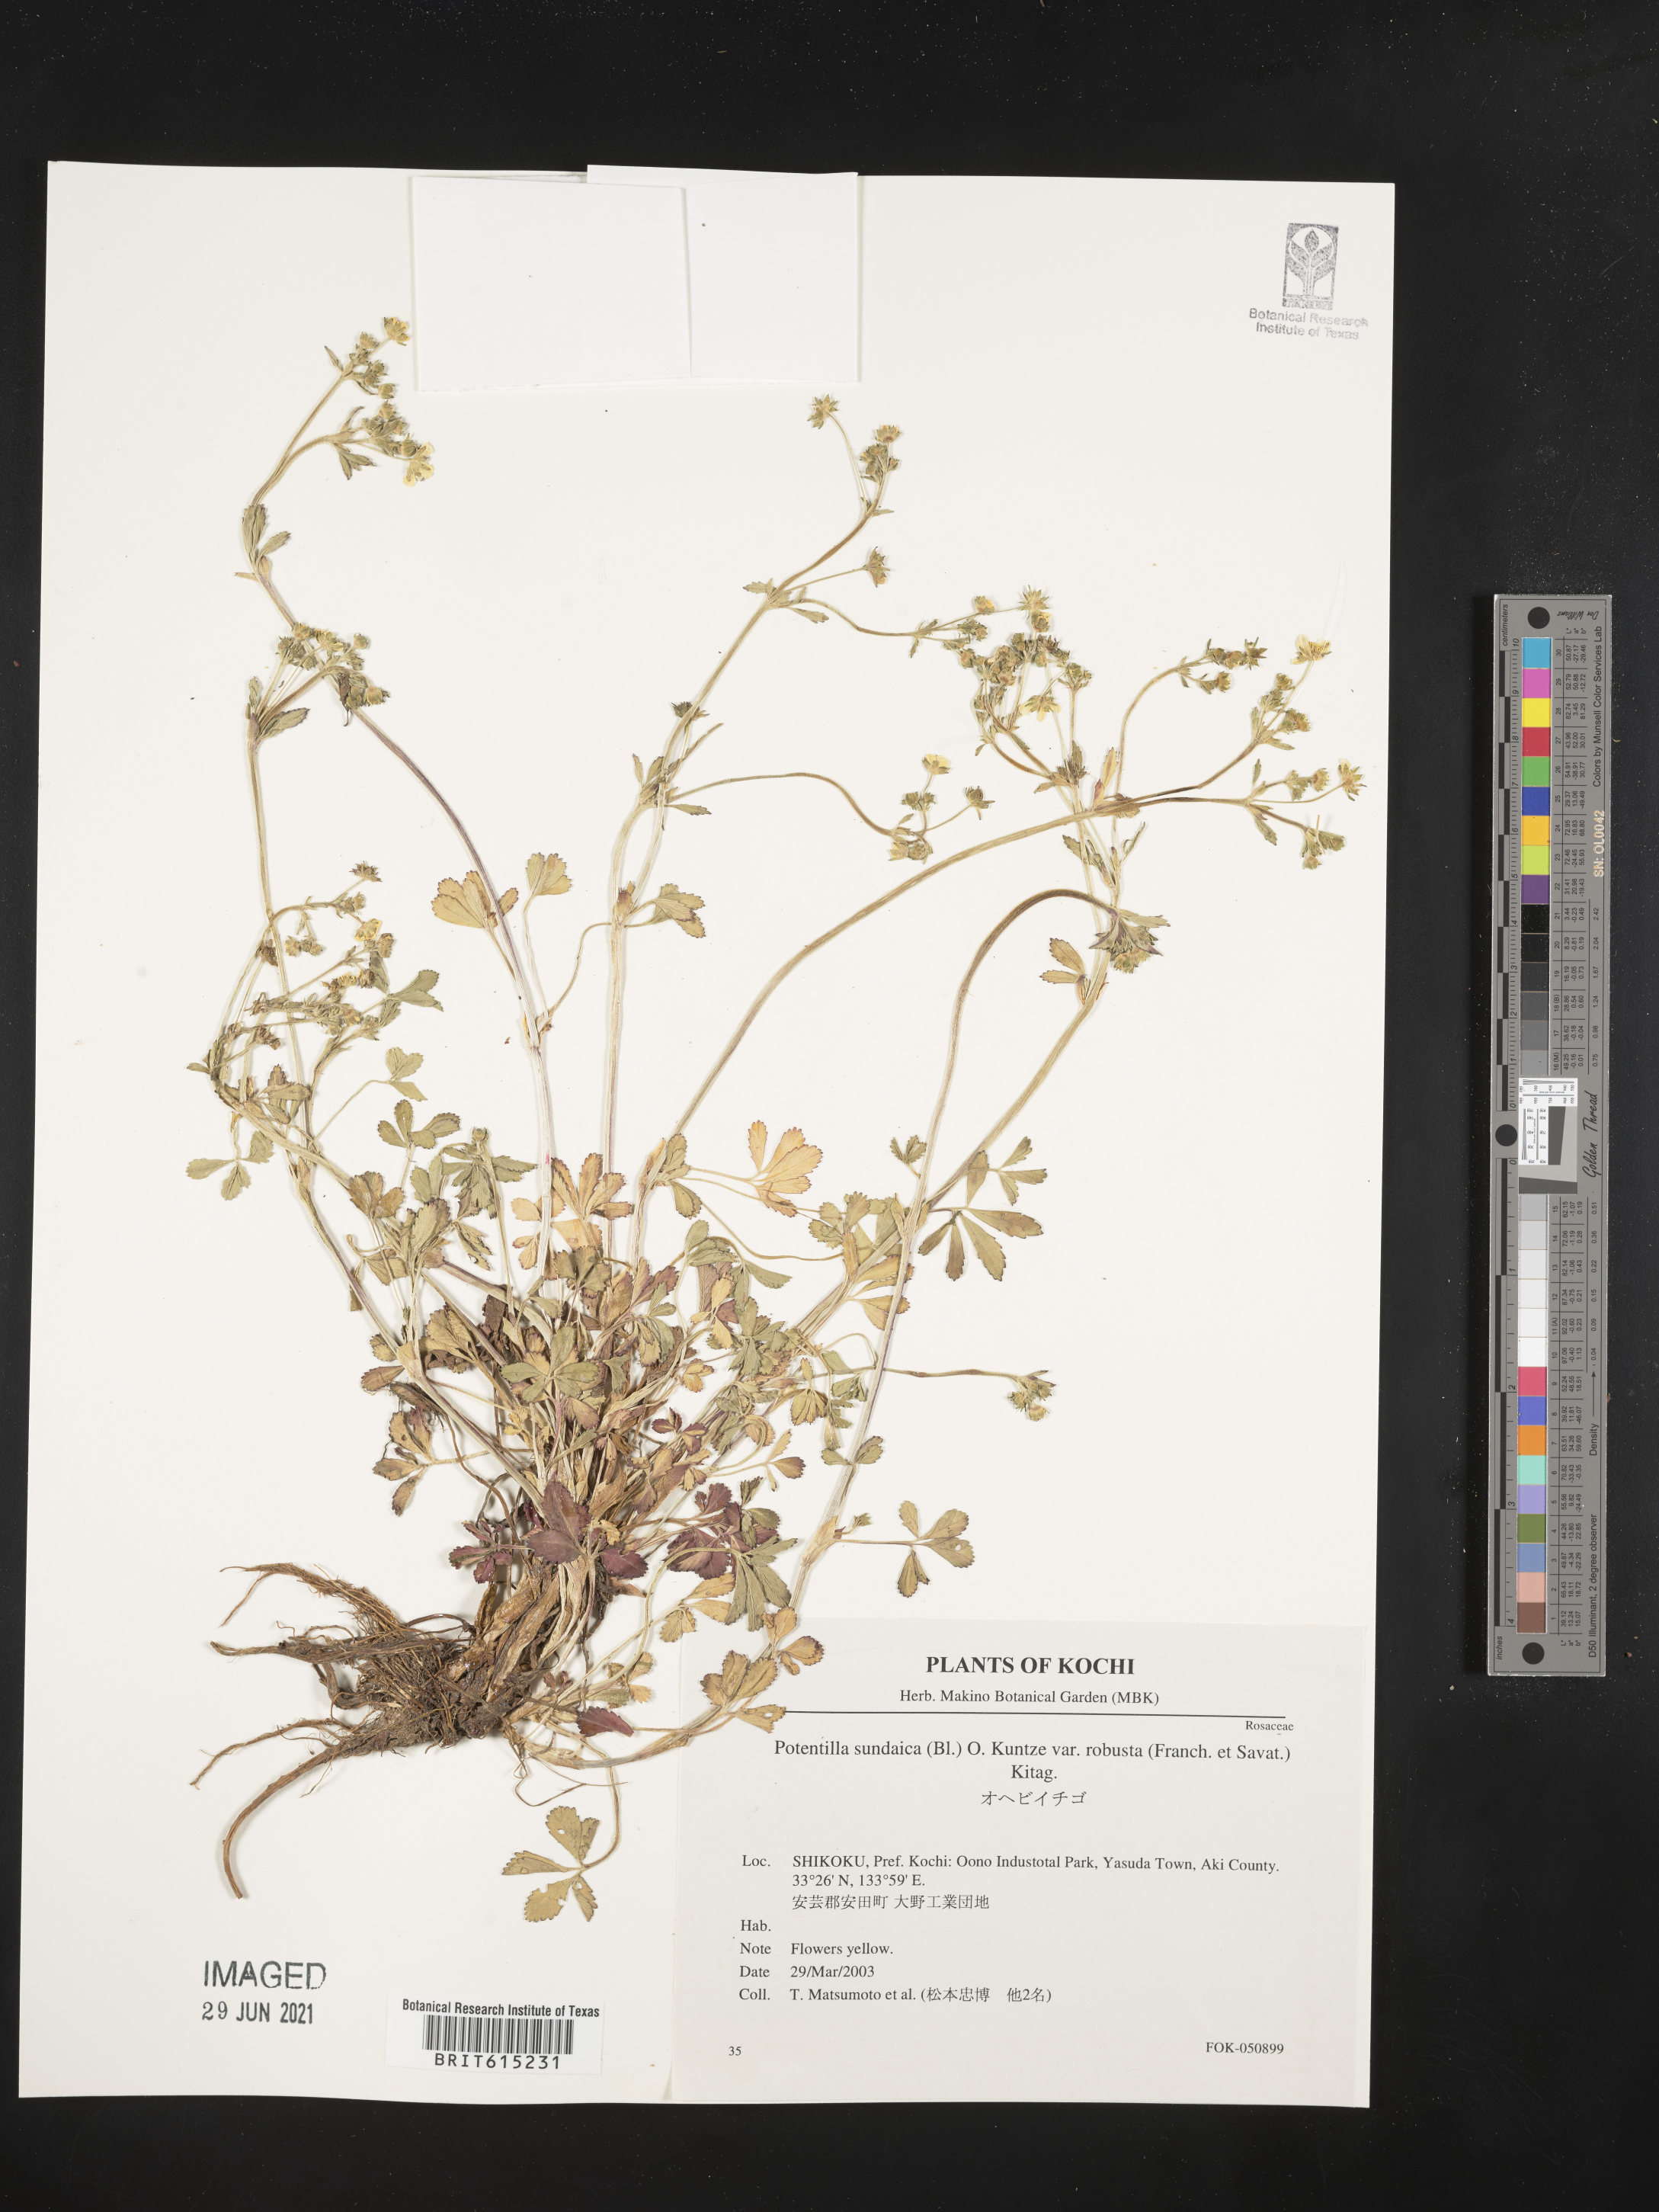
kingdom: Plantae
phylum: Tracheophyta
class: Magnoliopsida
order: Rosales
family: Rosaceae
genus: Potentilla
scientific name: Potentilla sundaica
